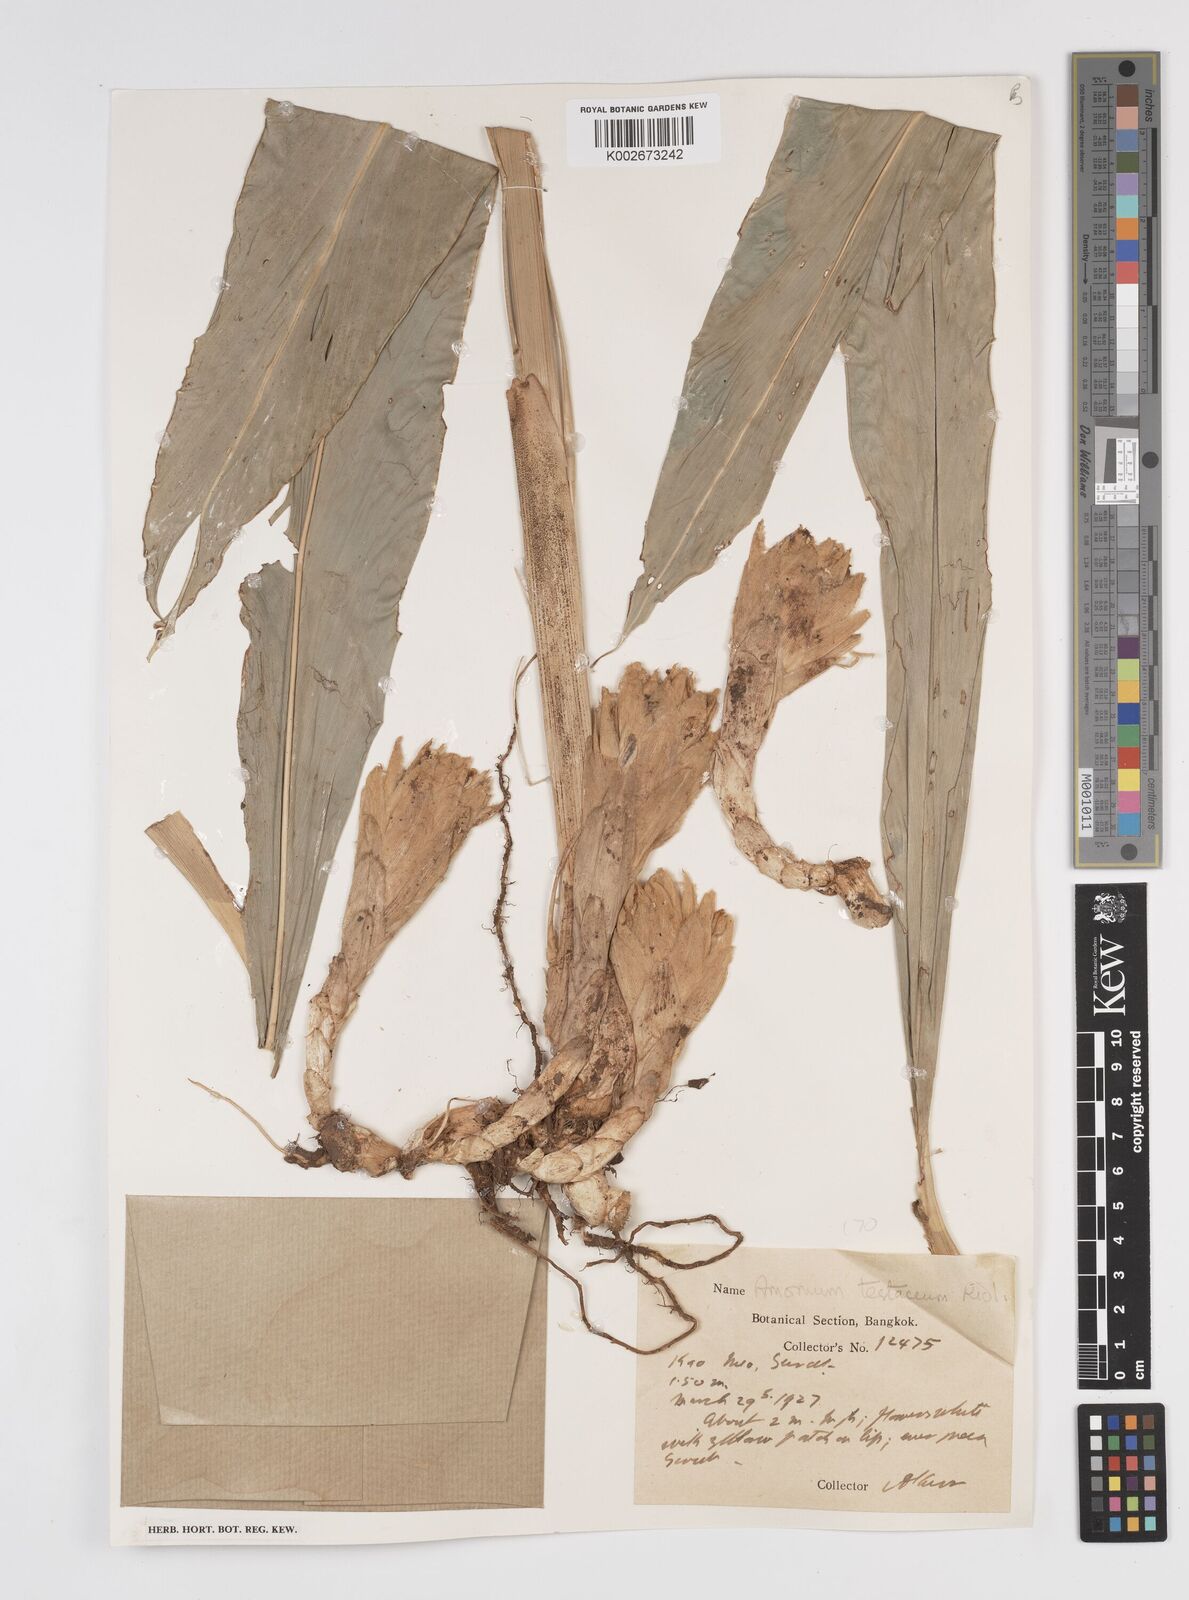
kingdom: Plantae
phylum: Tracheophyta
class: Liliopsida
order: Zingiberales
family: Zingiberaceae
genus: Wurfbainia
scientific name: Wurfbainia testacea
